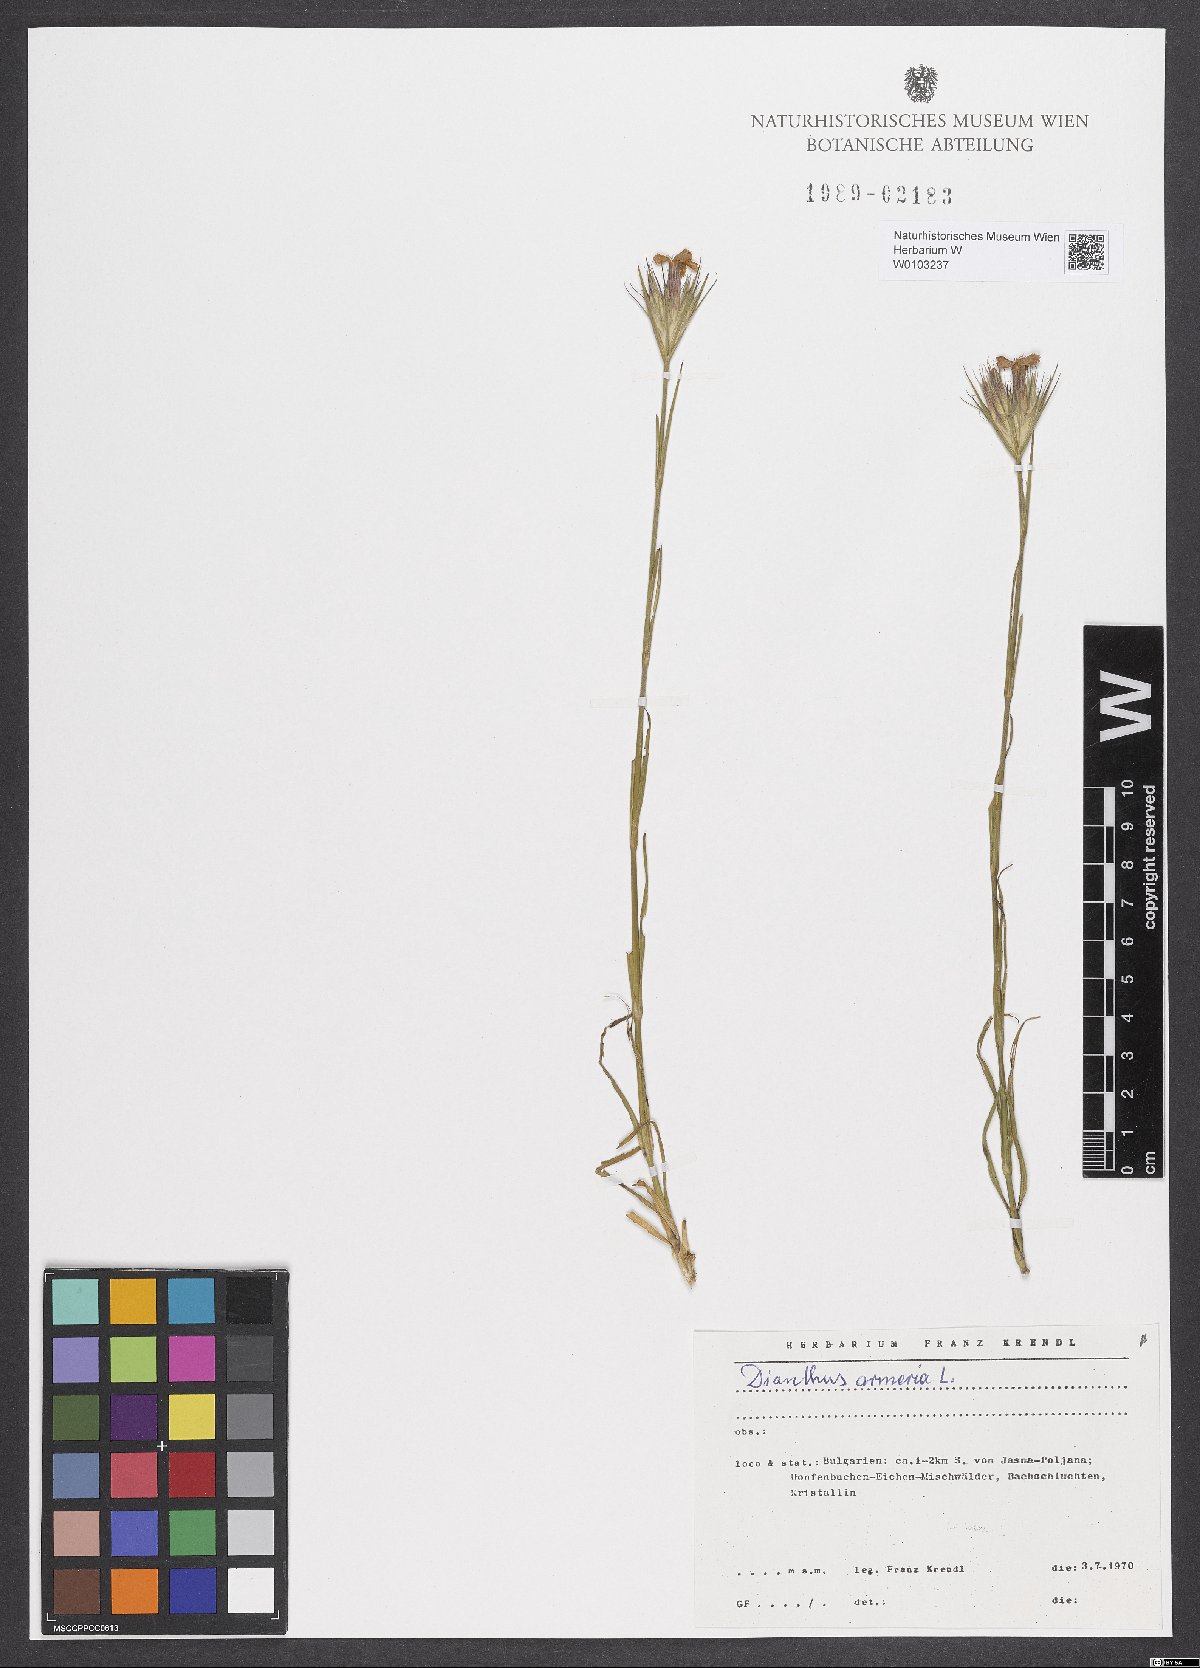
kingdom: Plantae
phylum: Tracheophyta
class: Magnoliopsida
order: Caryophyllales
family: Caryophyllaceae
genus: Dianthus
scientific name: Dianthus armeria
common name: Deptford pink
